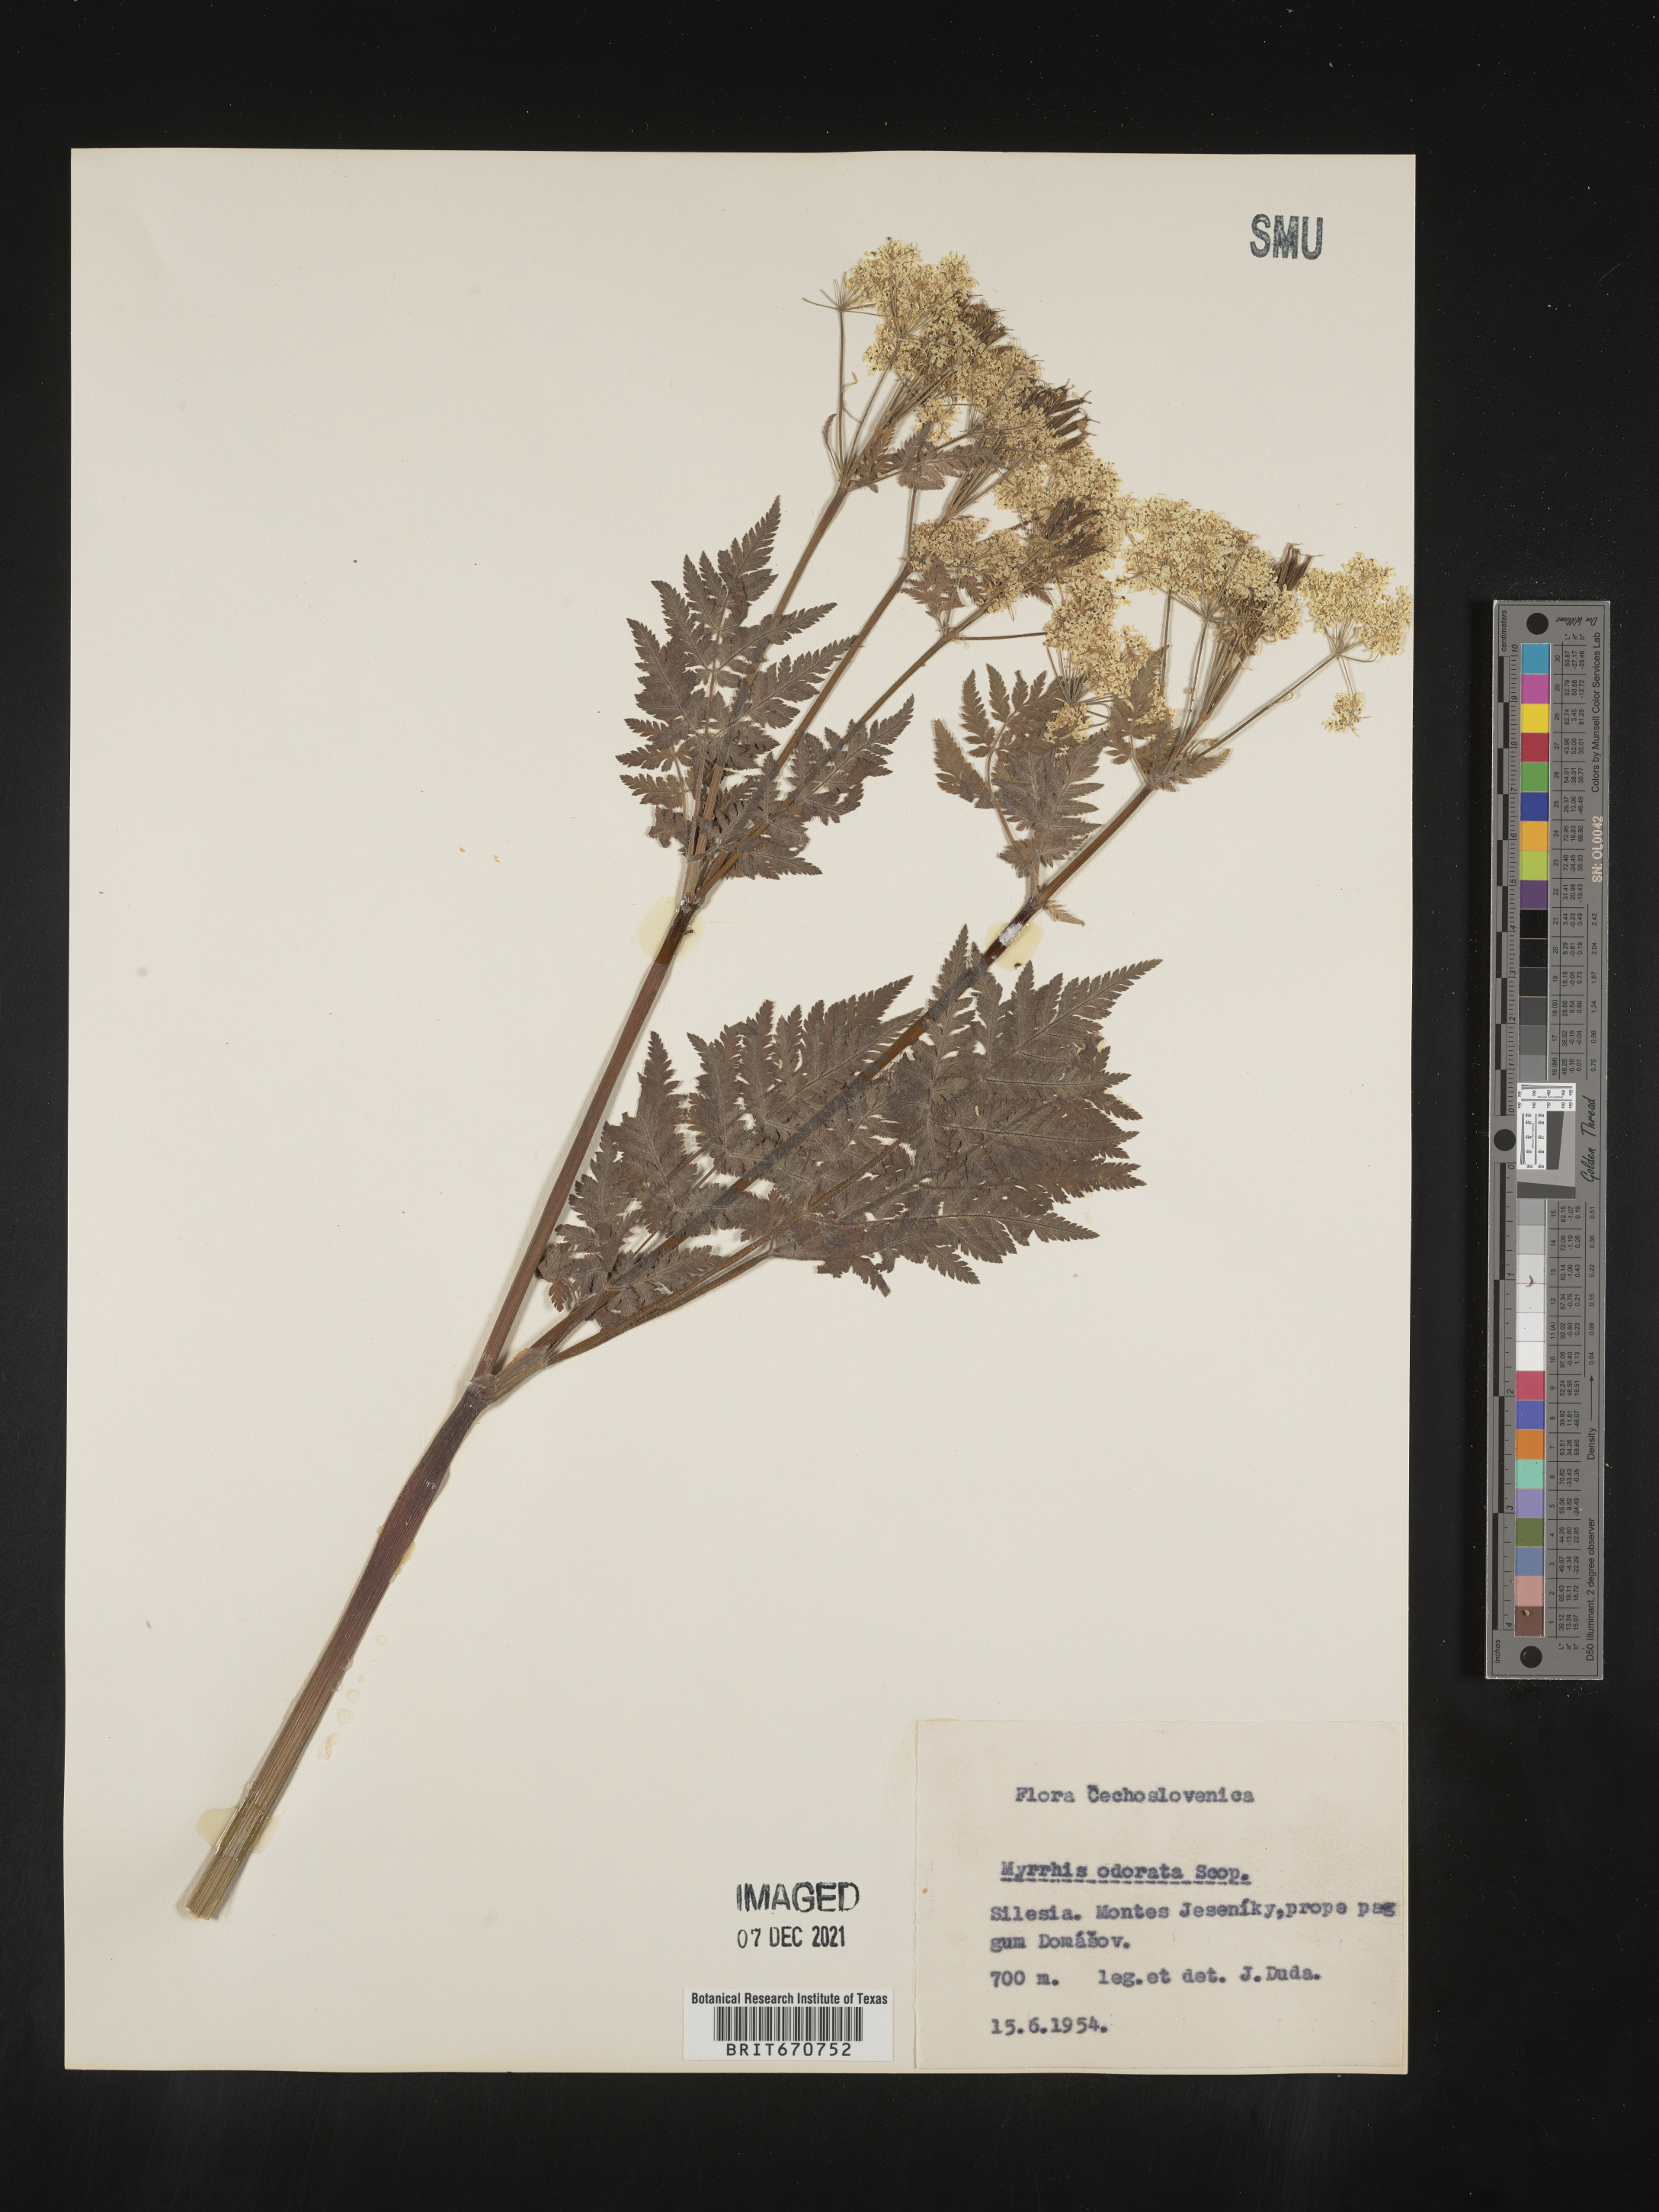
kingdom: Plantae
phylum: Tracheophyta
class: Magnoliopsida
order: Apiales
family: Apiaceae
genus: Myrrhis
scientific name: Myrrhis
